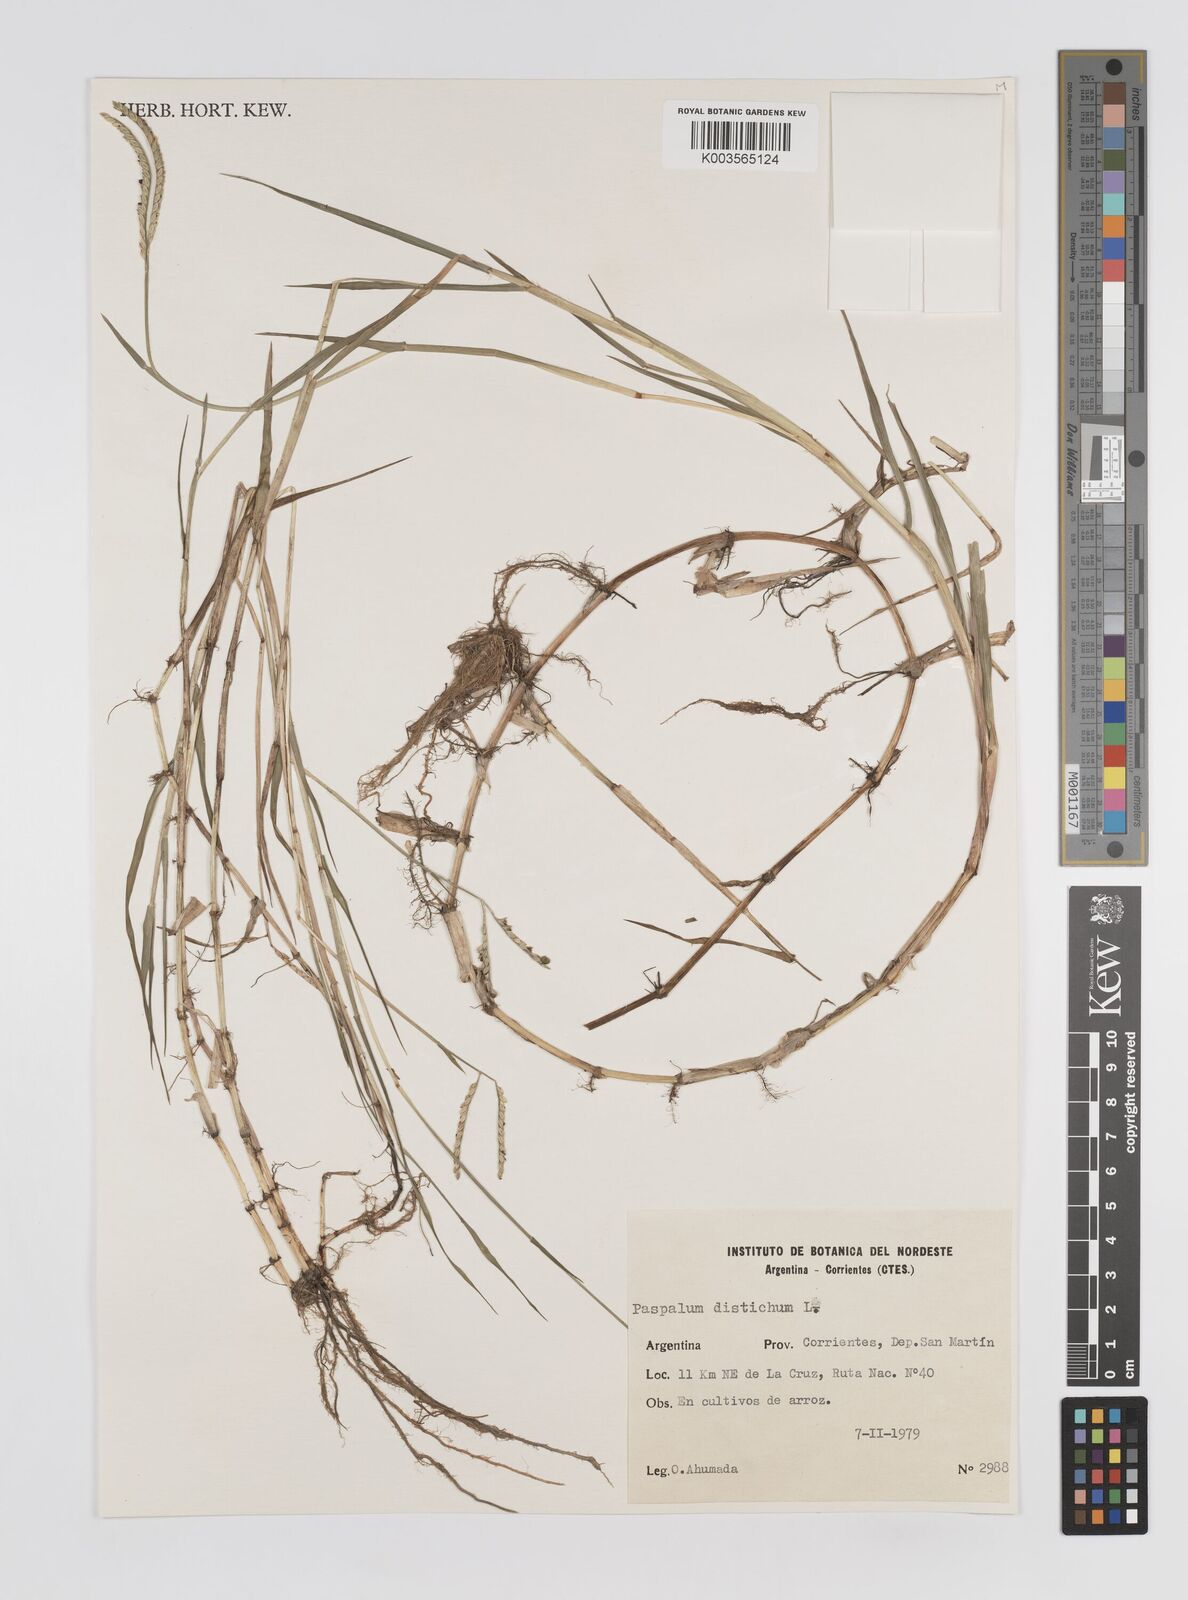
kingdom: Plantae
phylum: Tracheophyta
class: Liliopsida
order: Poales
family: Poaceae
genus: Paspalum
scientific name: Paspalum distichum
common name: Knotgrass
